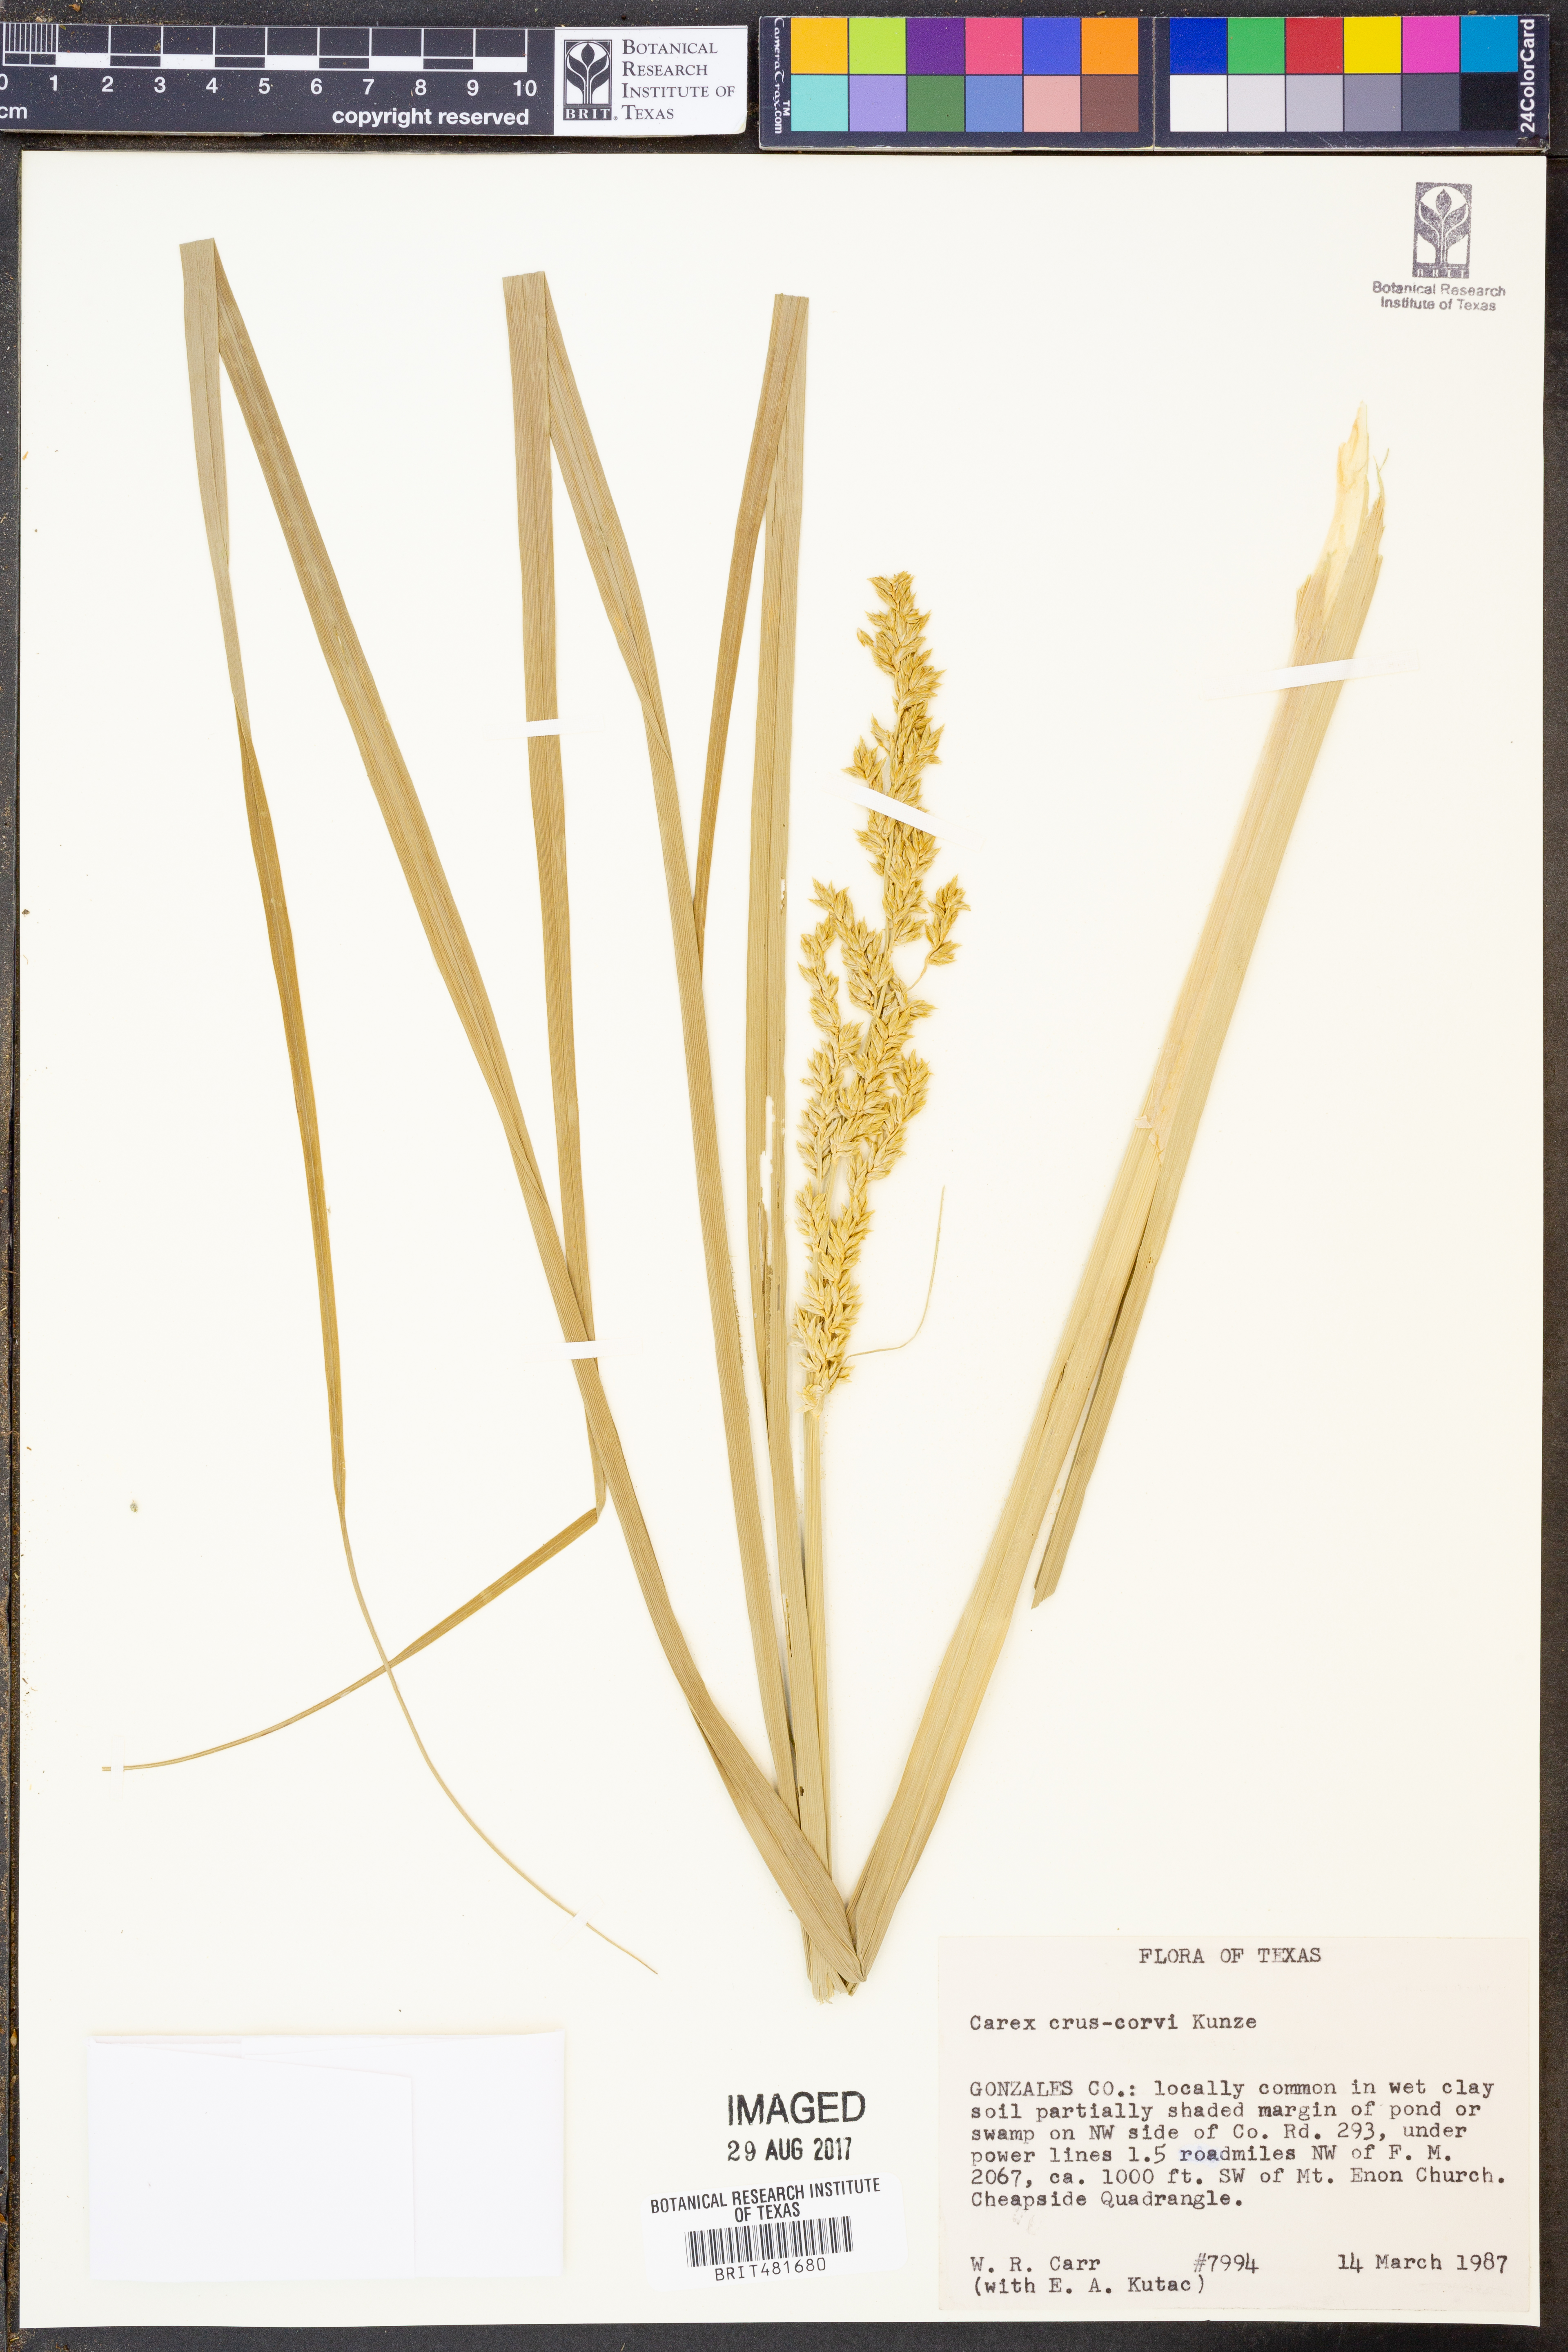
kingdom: Plantae
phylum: Tracheophyta
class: Liliopsida
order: Poales
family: Cyperaceae
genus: Carex
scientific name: Carex crus-corvi
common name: Crow-spur sedge
